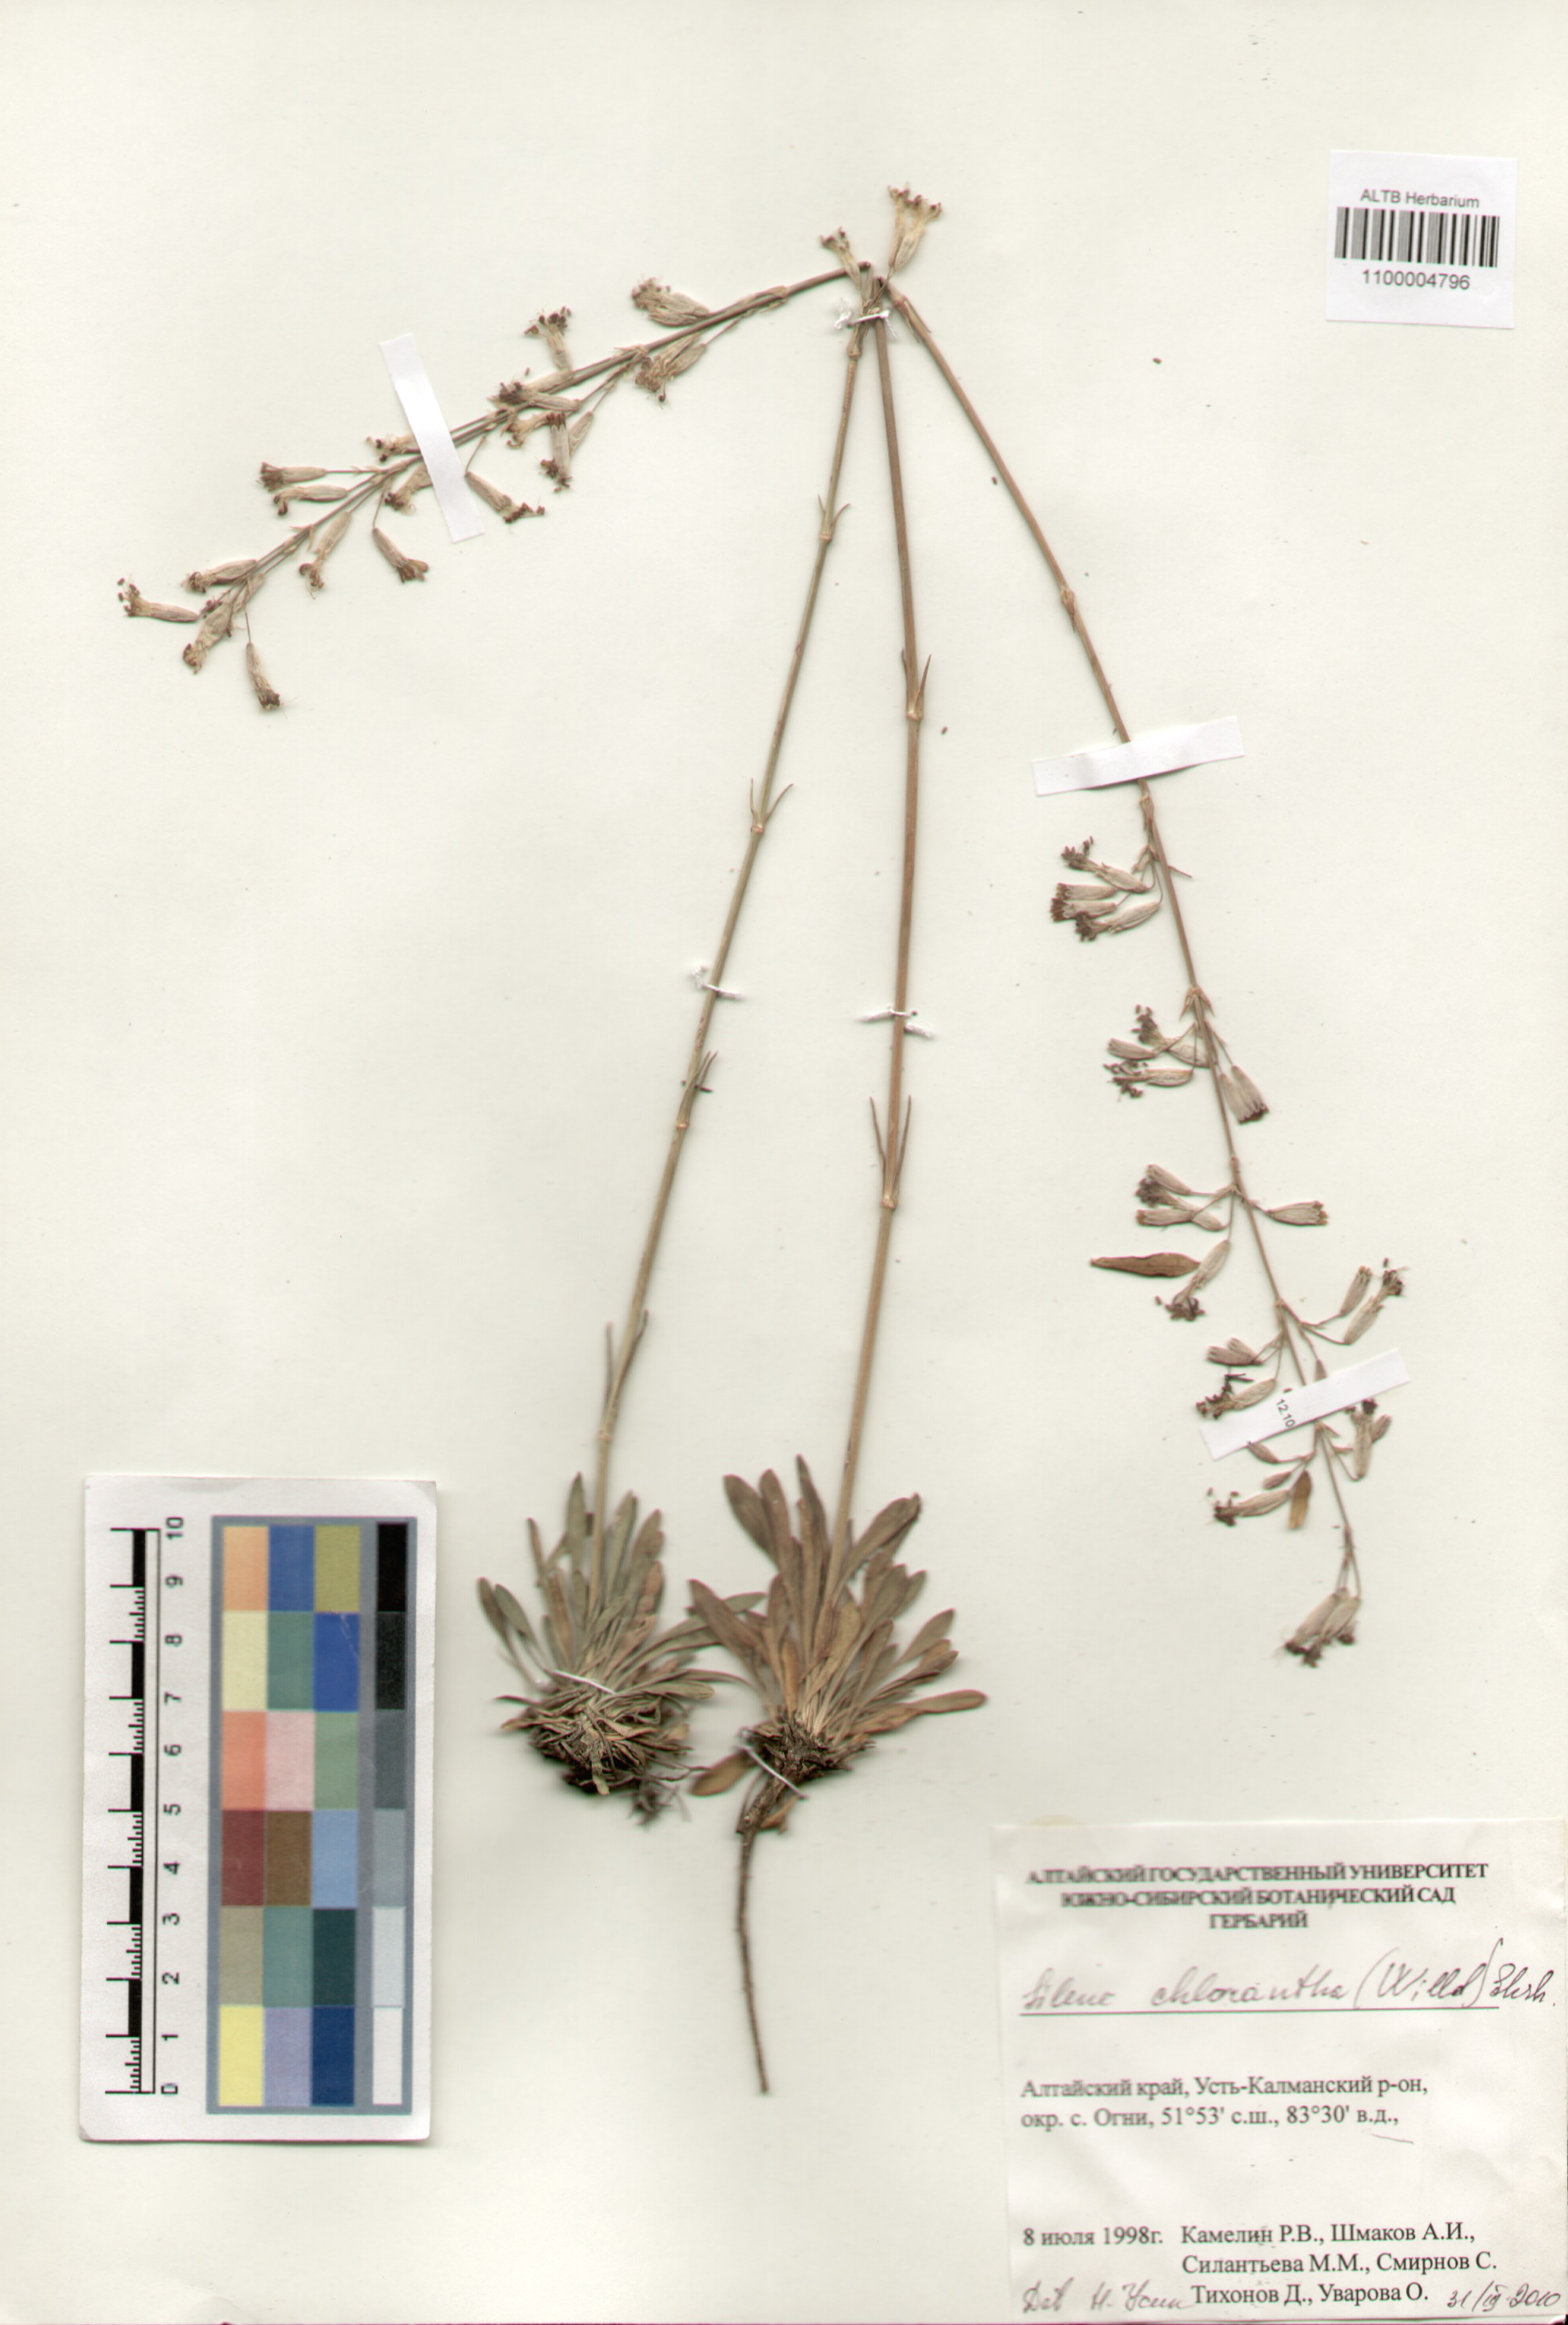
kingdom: Plantae
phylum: Tracheophyta
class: Magnoliopsida
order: Caryophyllales
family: Caryophyllaceae
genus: Silene
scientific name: Silene chlorantha
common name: Yellowgreen catchfly
